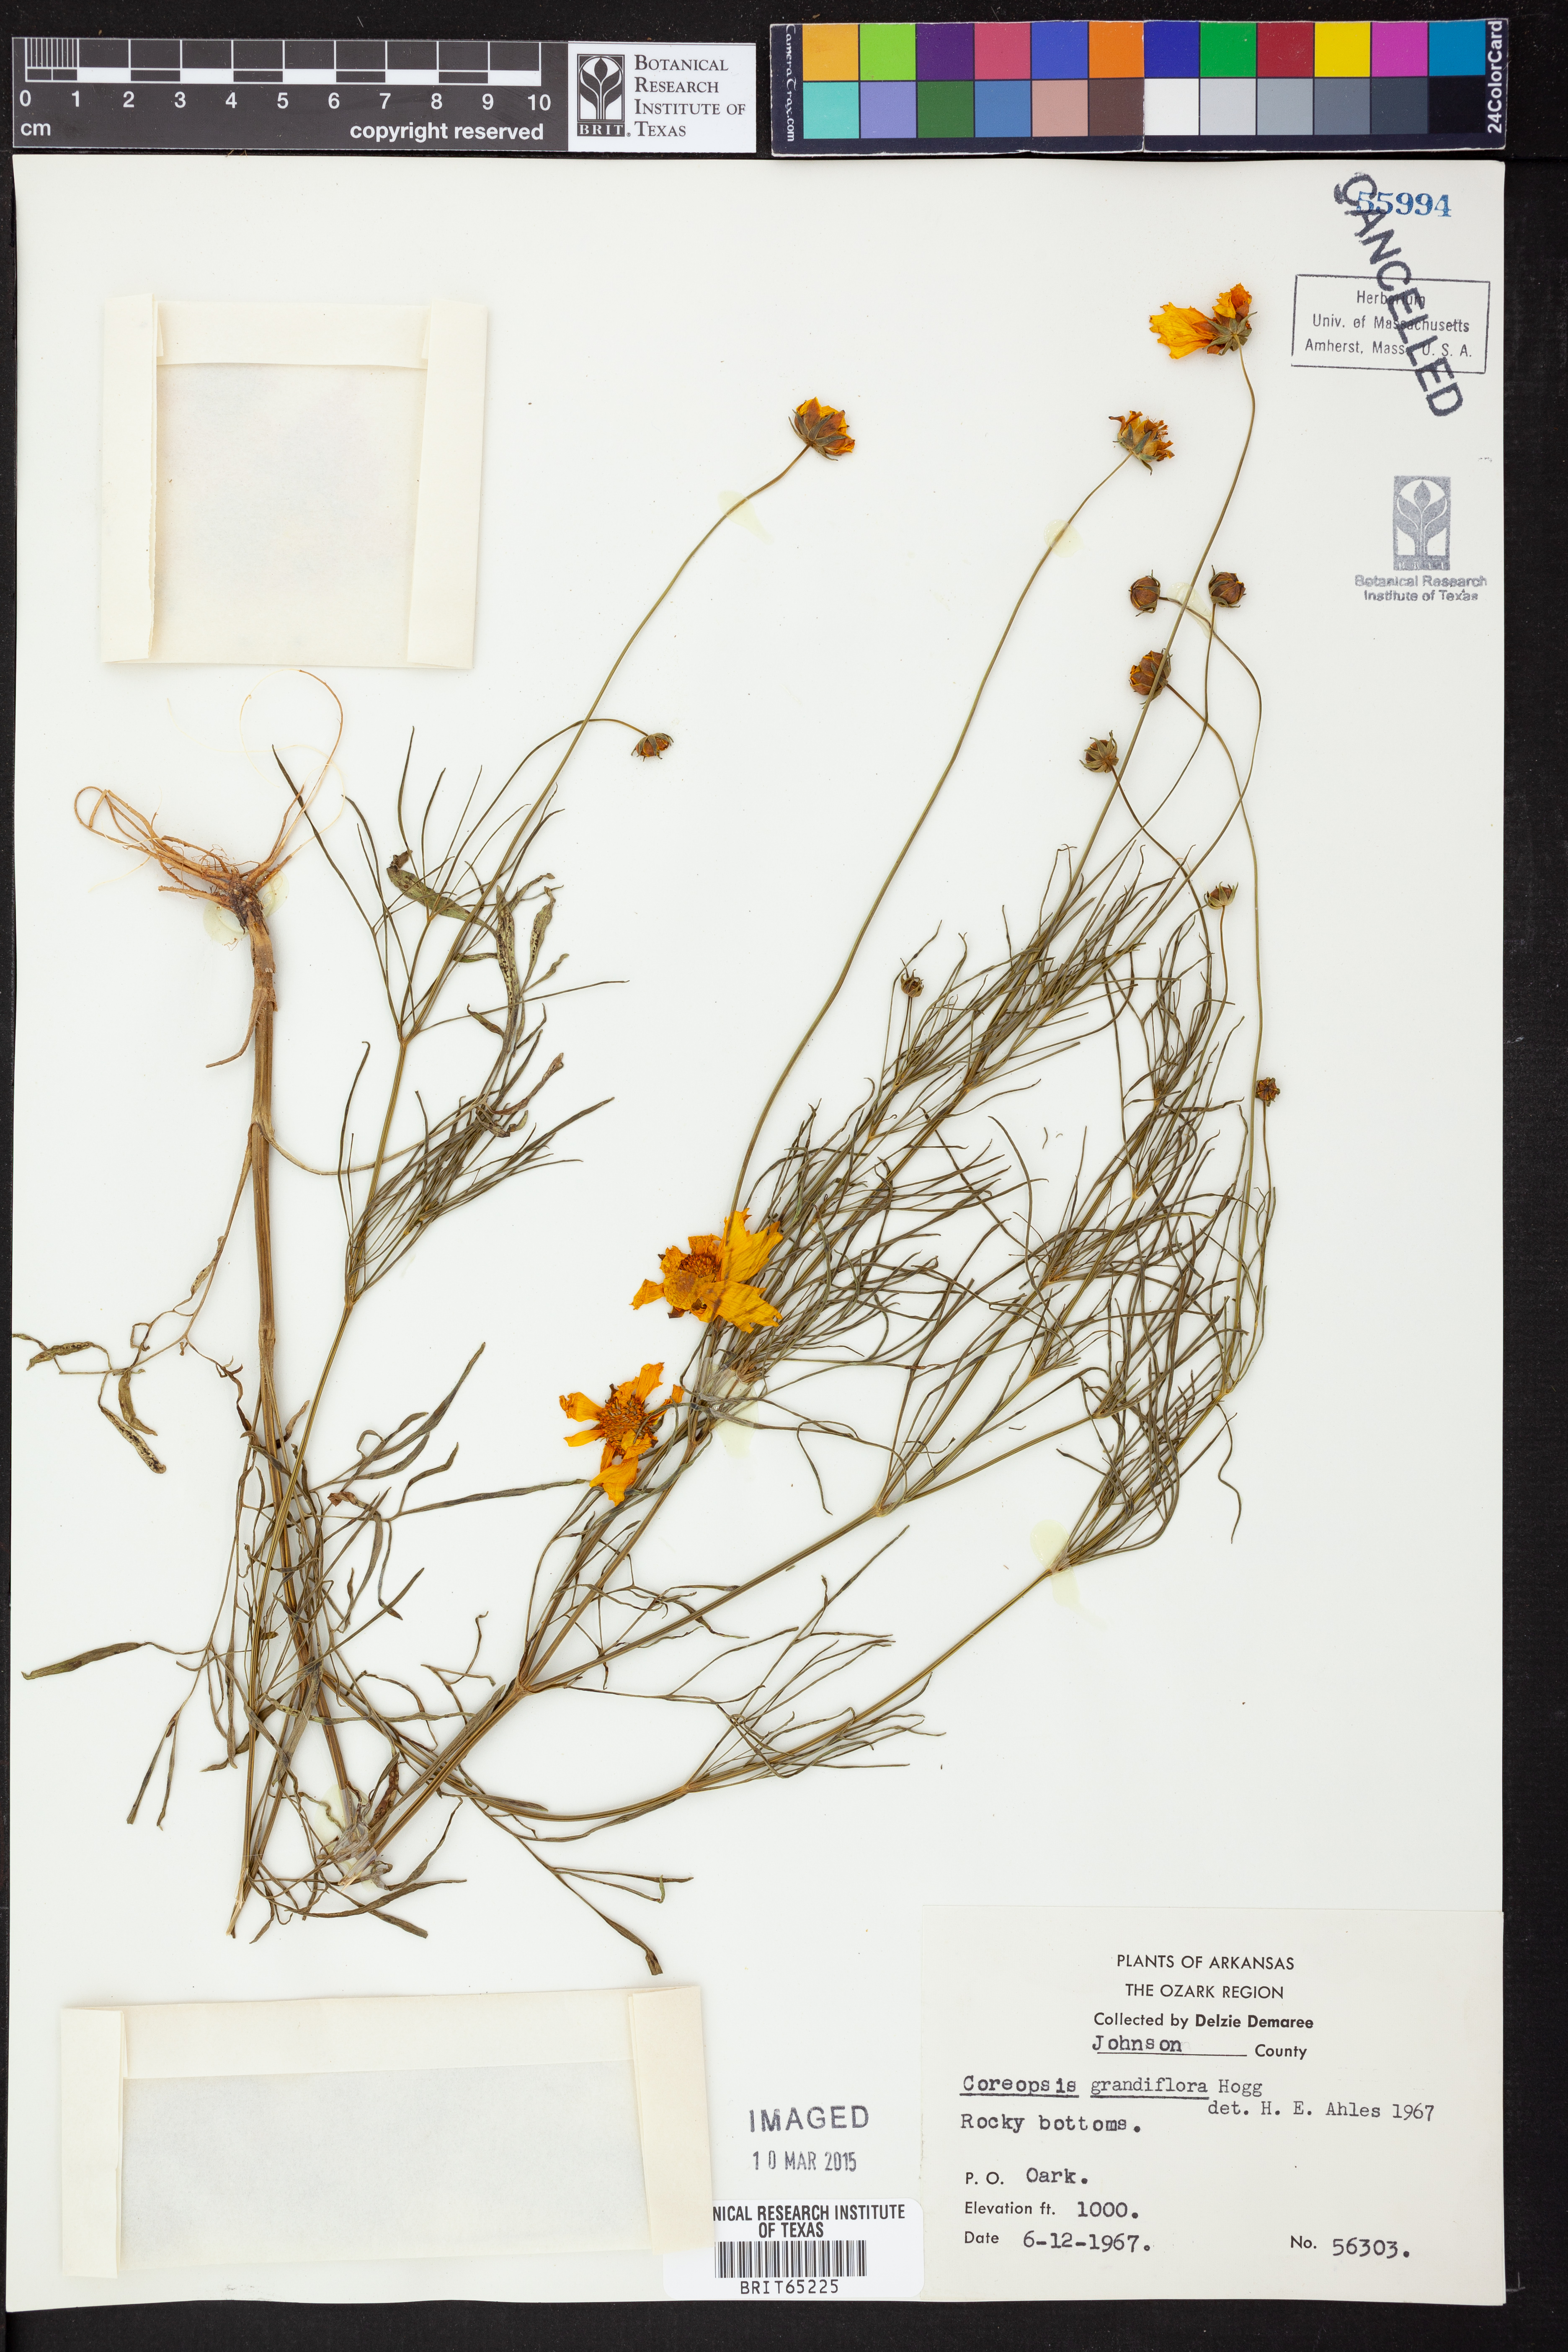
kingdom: Plantae
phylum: Tracheophyta
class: Magnoliopsida
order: Asterales
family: Asteraceae
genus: Coreopsis
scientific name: Coreopsis grandiflora
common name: Large-flowered tickseed
